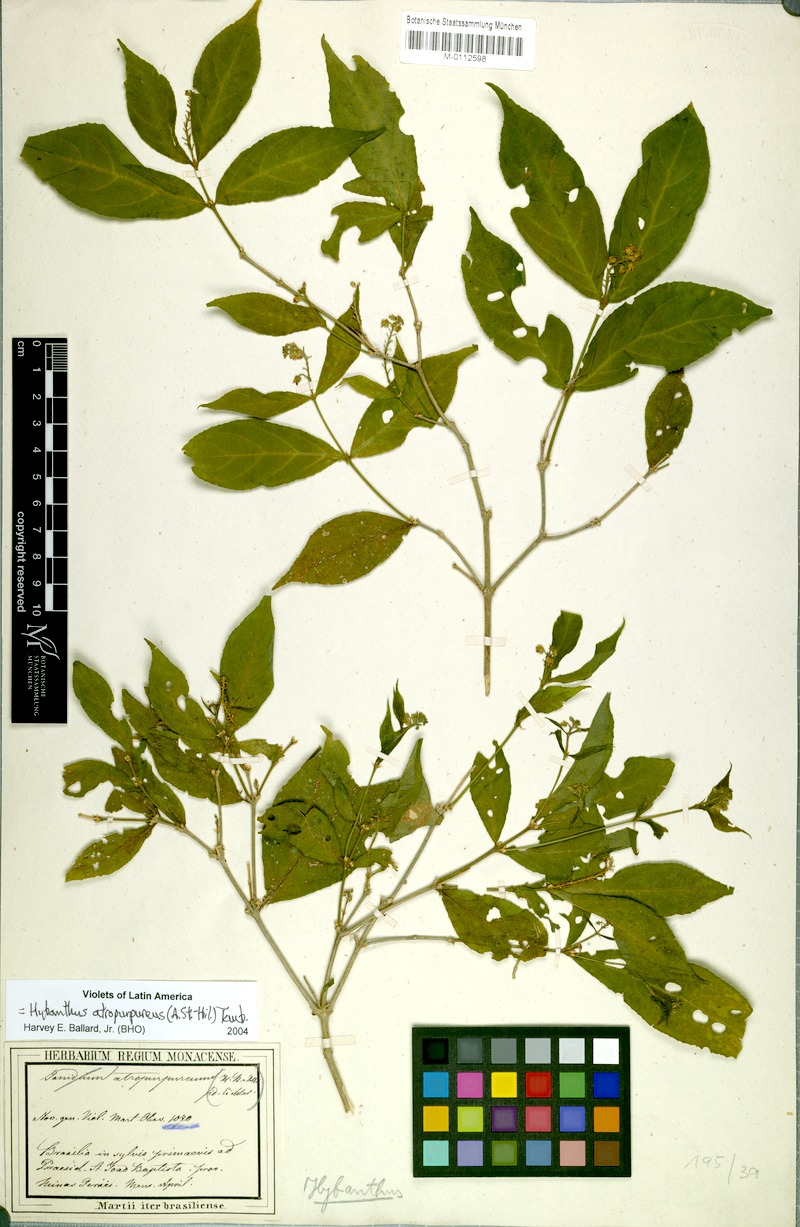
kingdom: Plantae
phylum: Tracheophyta
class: Magnoliopsida
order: Malpighiales
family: Violaceae
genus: Pombalia
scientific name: Pombalia atropurpurea
